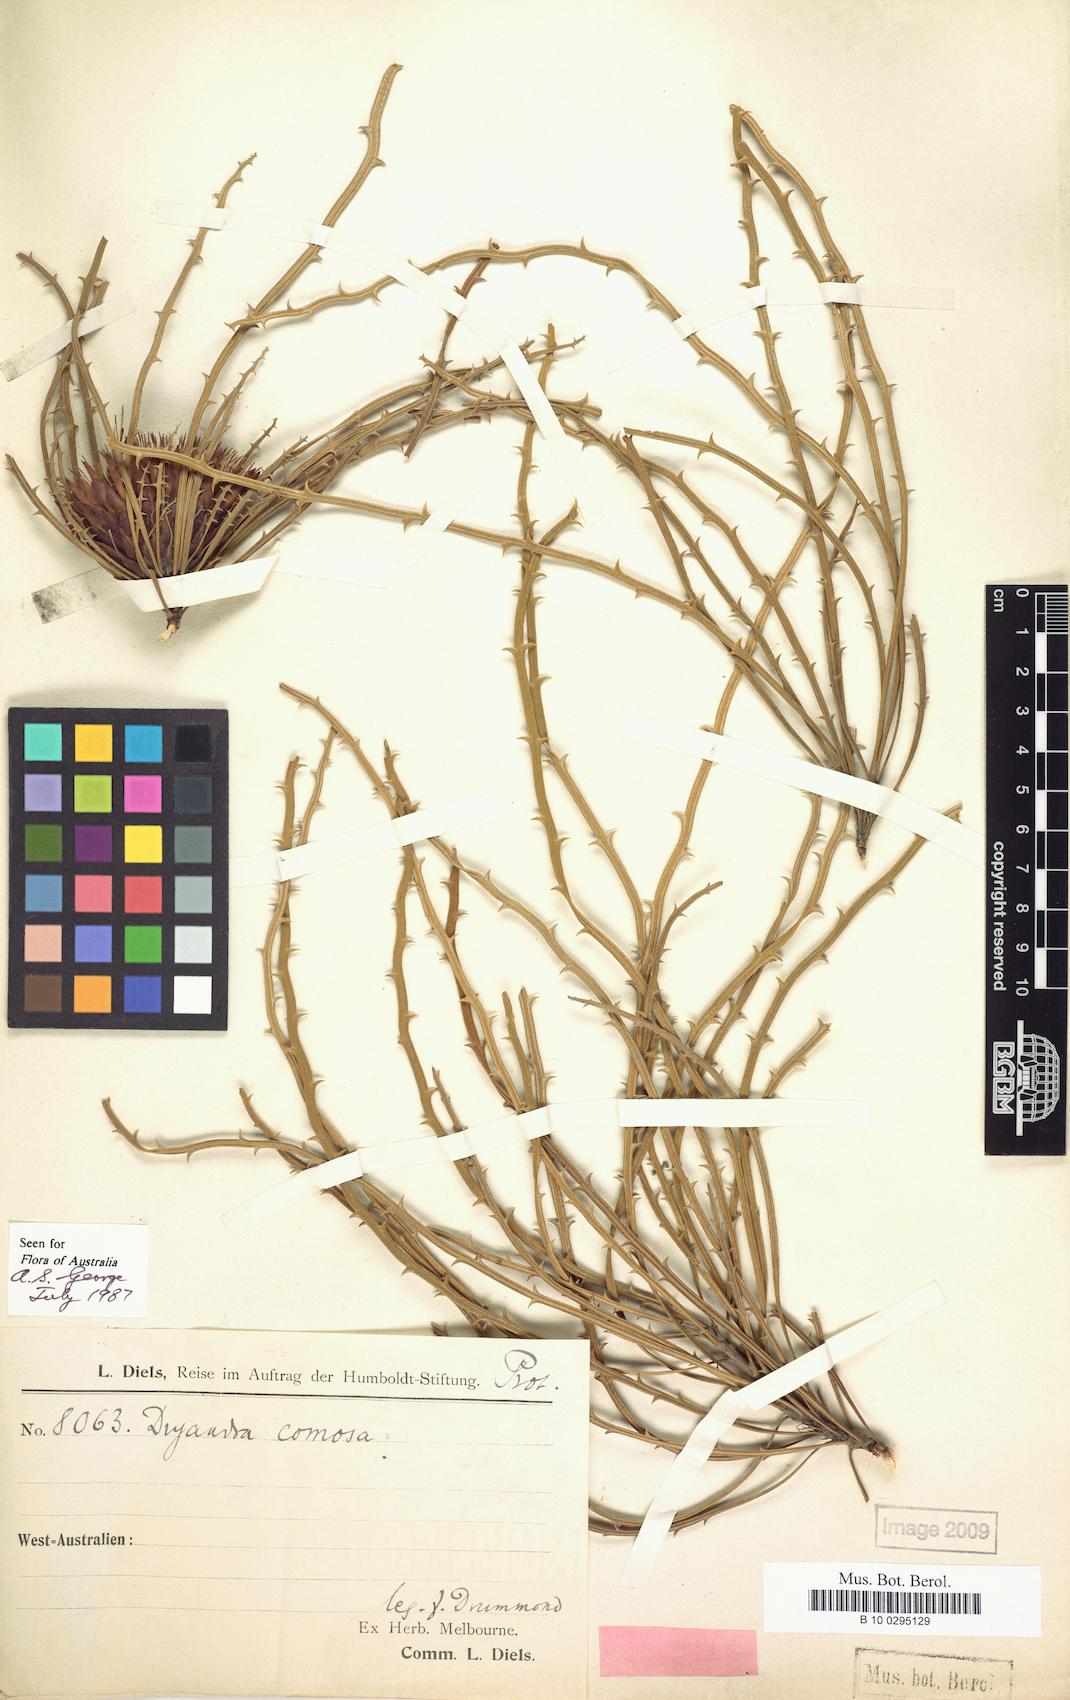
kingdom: Plantae
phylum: Tracheophyta
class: Magnoliopsida
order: Proteales
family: Proteaceae
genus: Banksia
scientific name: Banksia comosa
